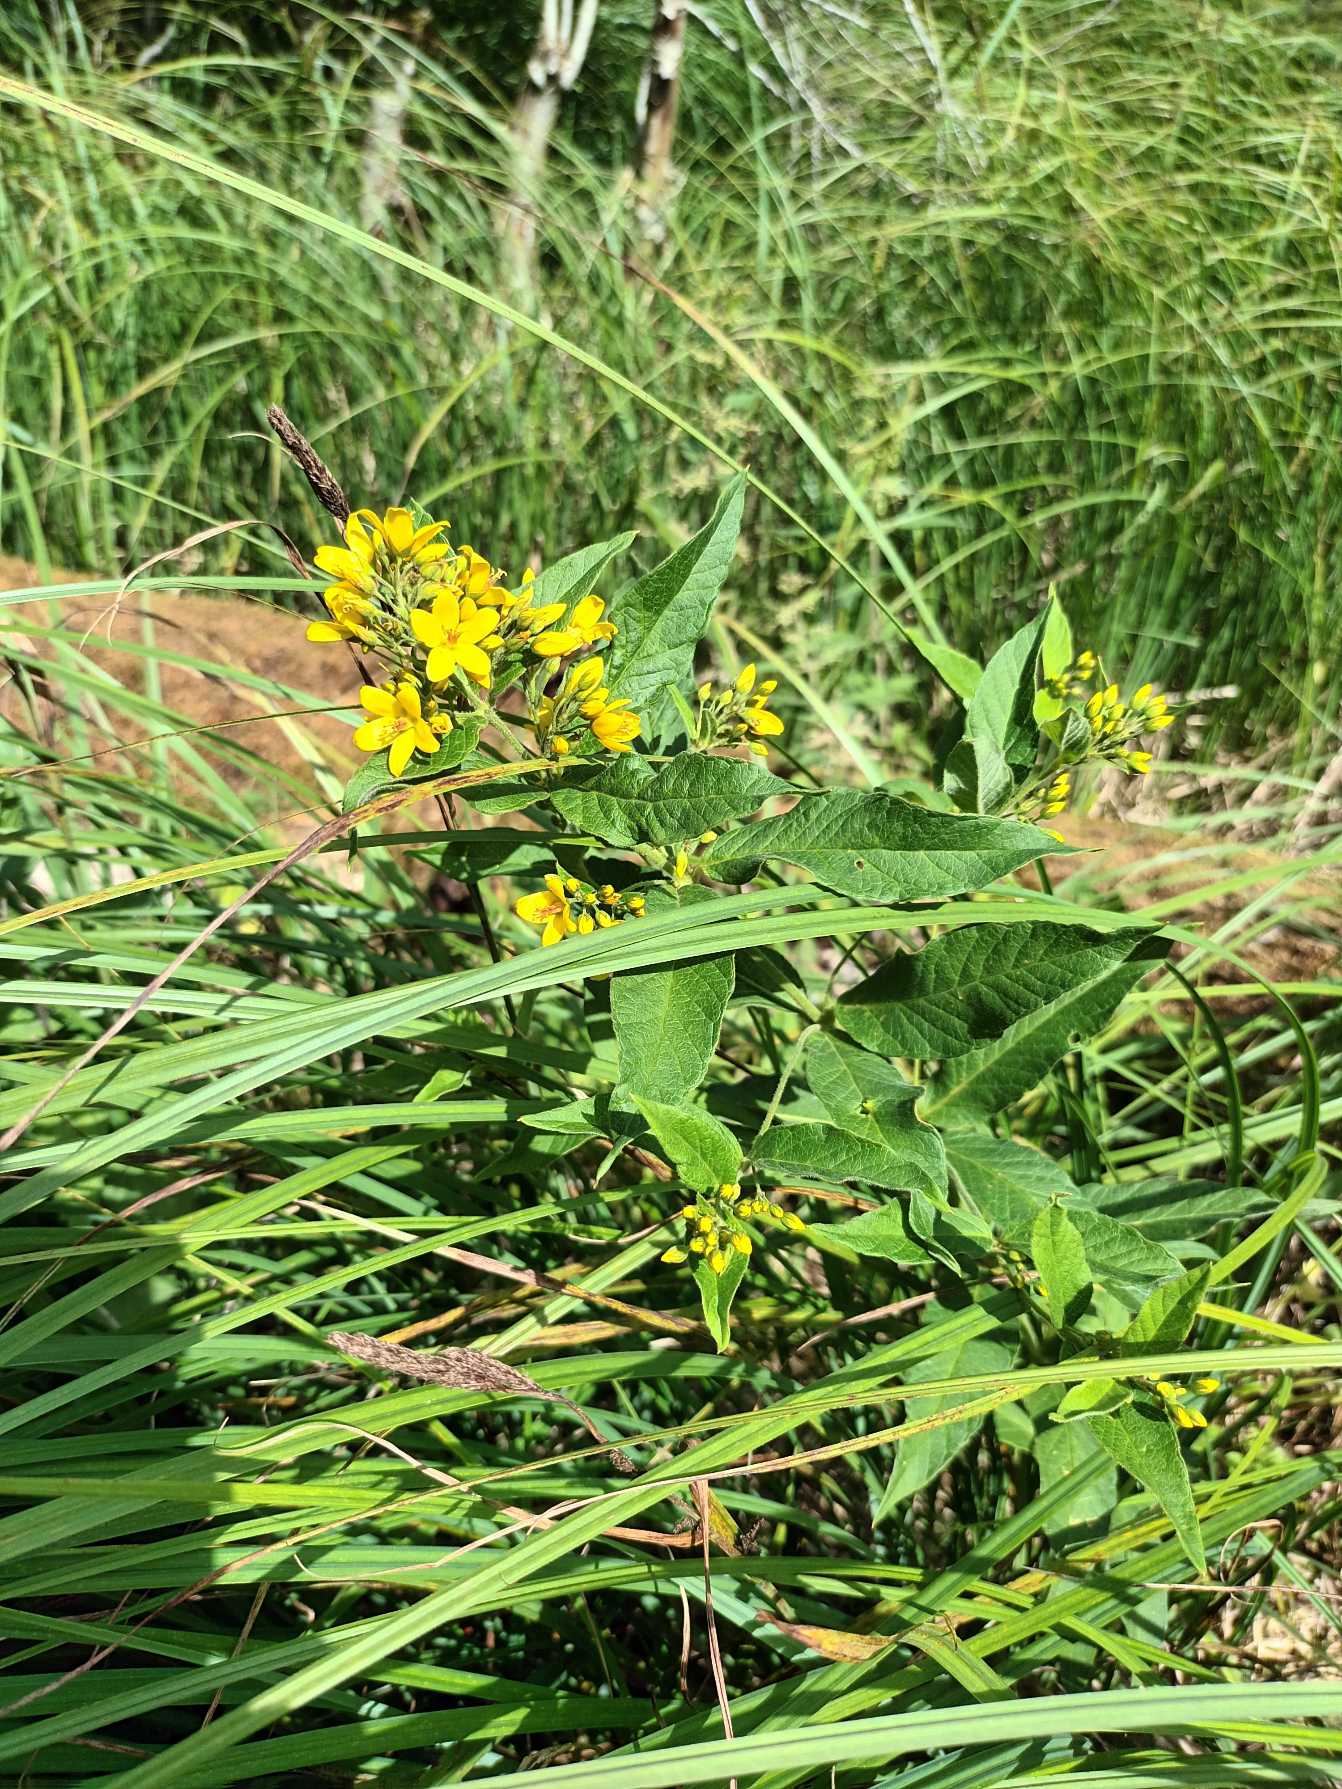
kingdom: Plantae
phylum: Tracheophyta
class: Magnoliopsida
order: Ericales
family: Primulaceae
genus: Lysimachia
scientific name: Lysimachia vulgaris
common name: Almindelig fredløs
